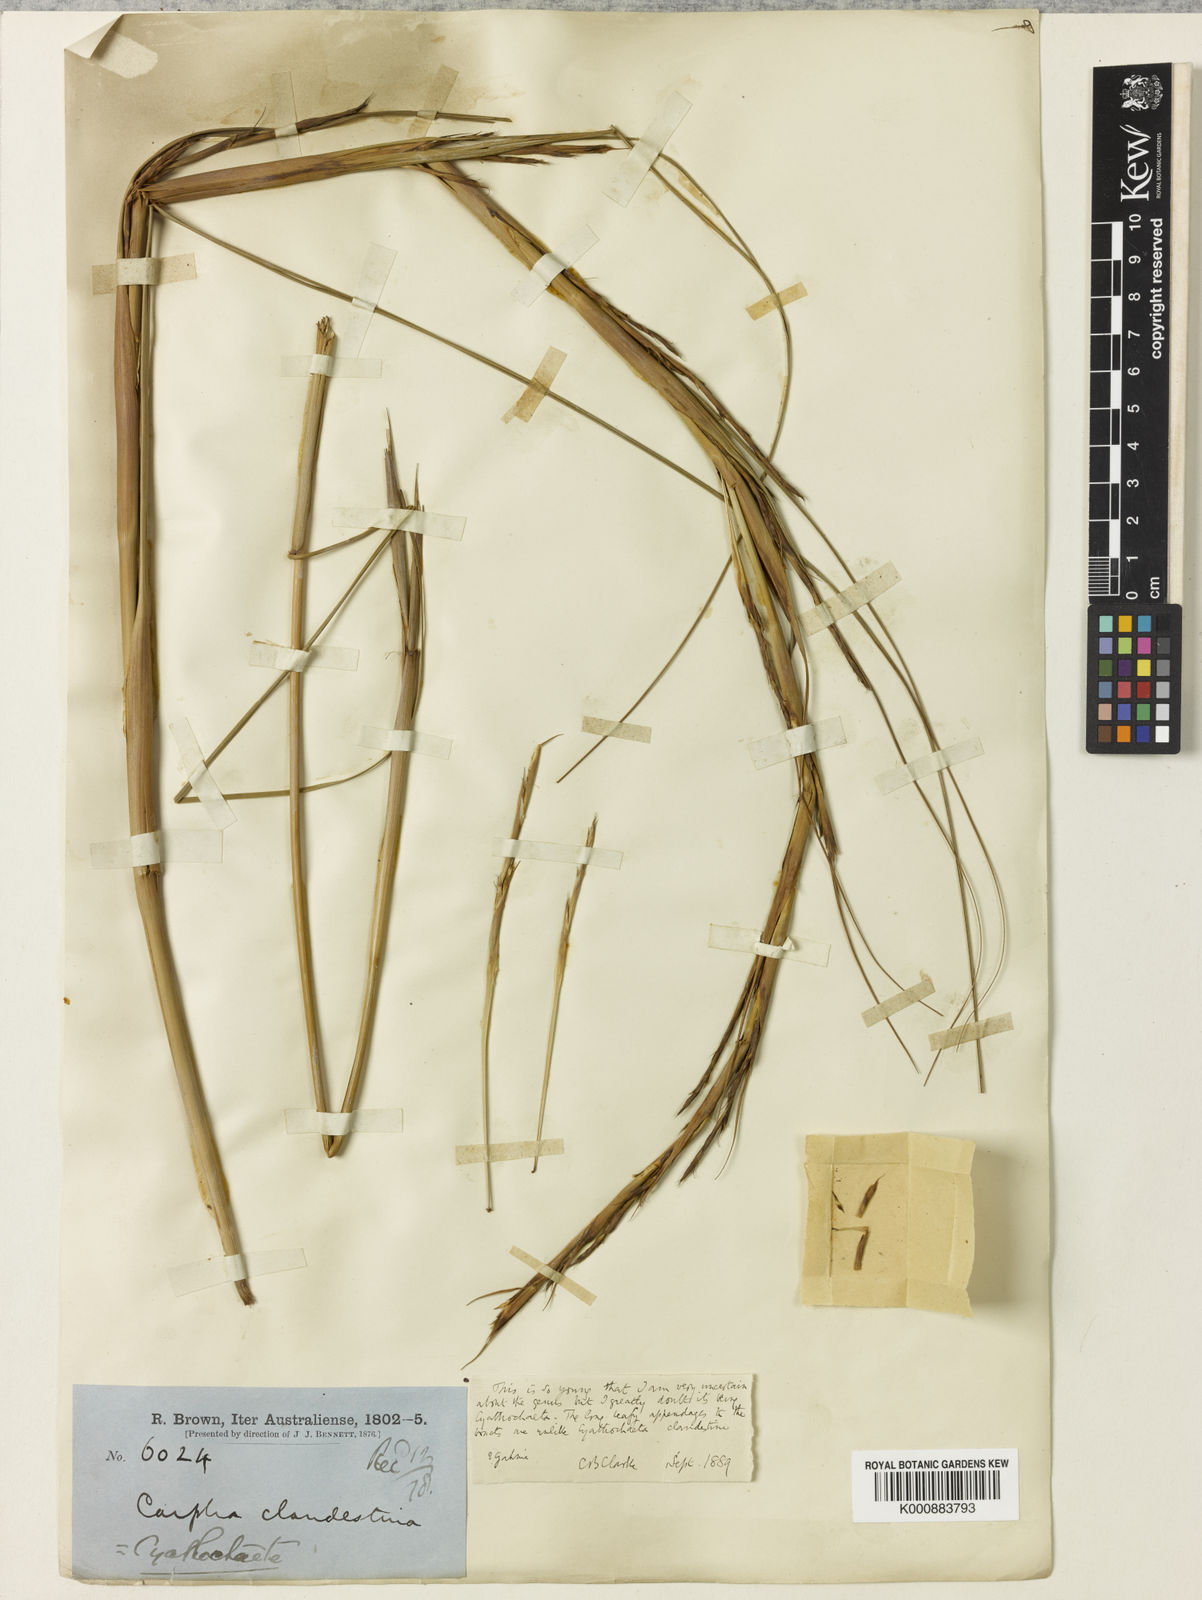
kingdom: Plantae
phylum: Tracheophyta
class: Liliopsida
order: Poales
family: Cyperaceae
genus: Cyathochaeta
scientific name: Cyathochaeta clandestina
